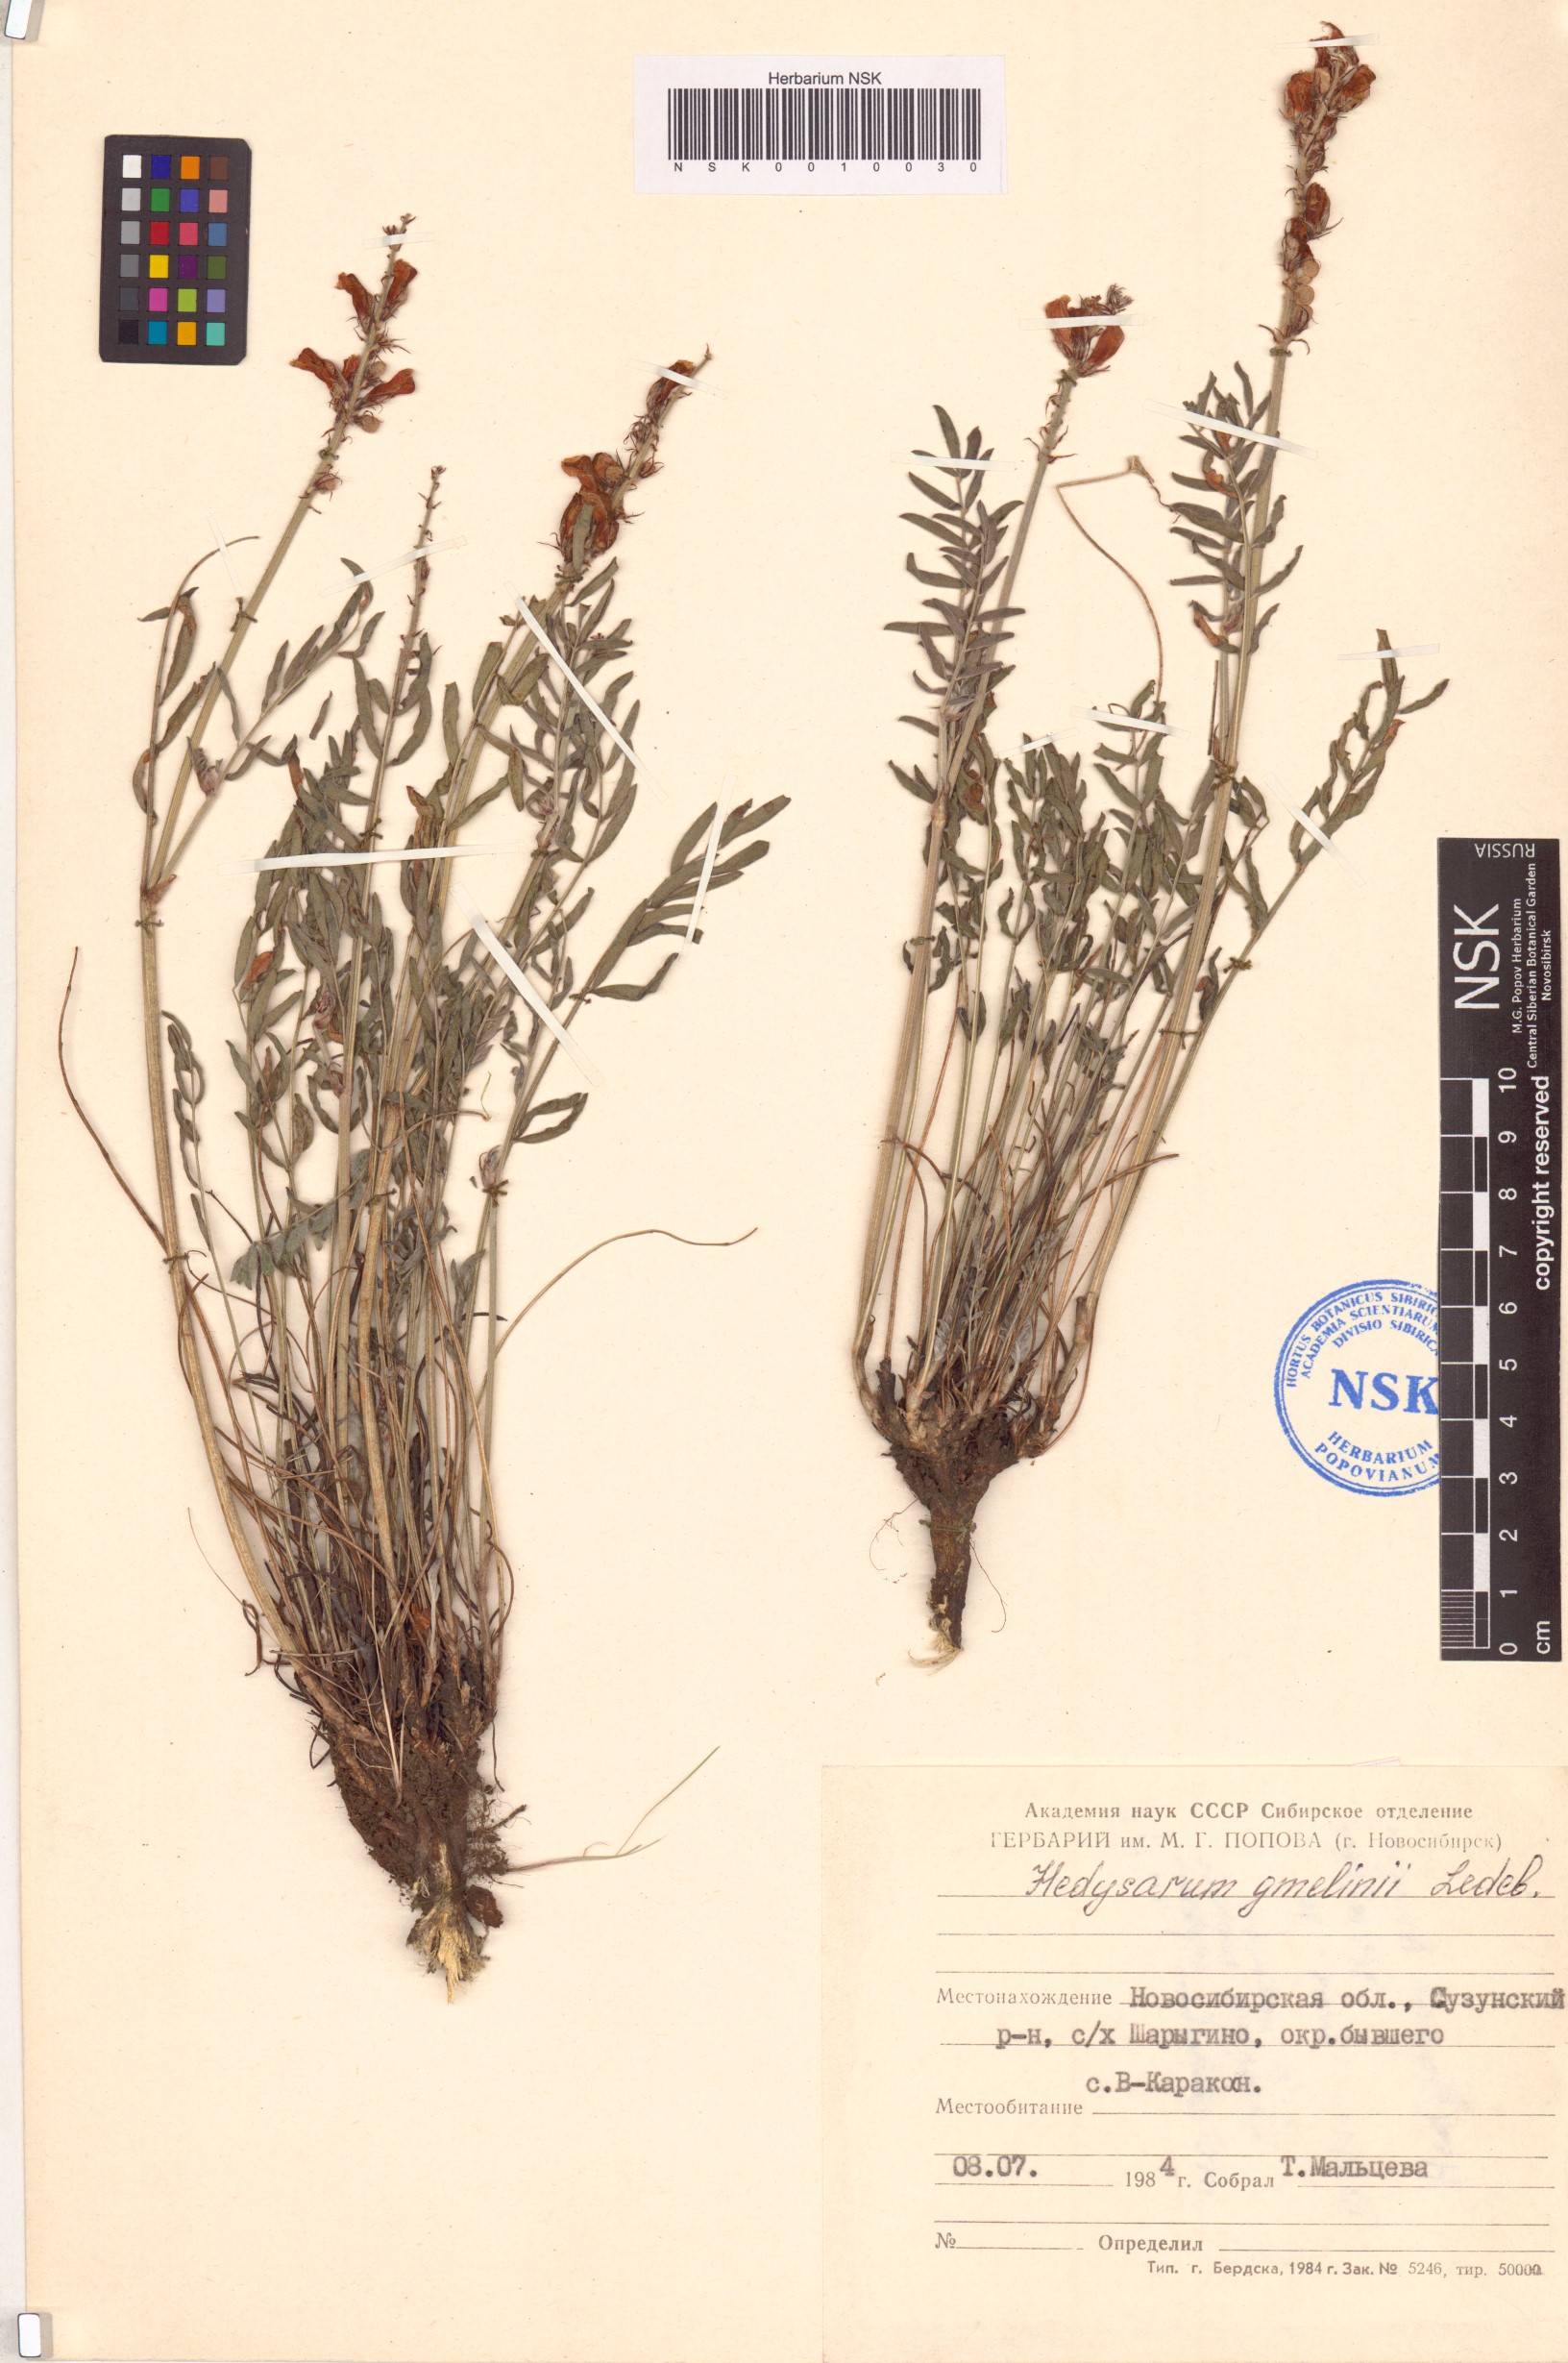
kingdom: Plantae
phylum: Tracheophyta
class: Magnoliopsida
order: Fabales
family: Fabaceae
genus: Hedysarum
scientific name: Hedysarum gmelinii
